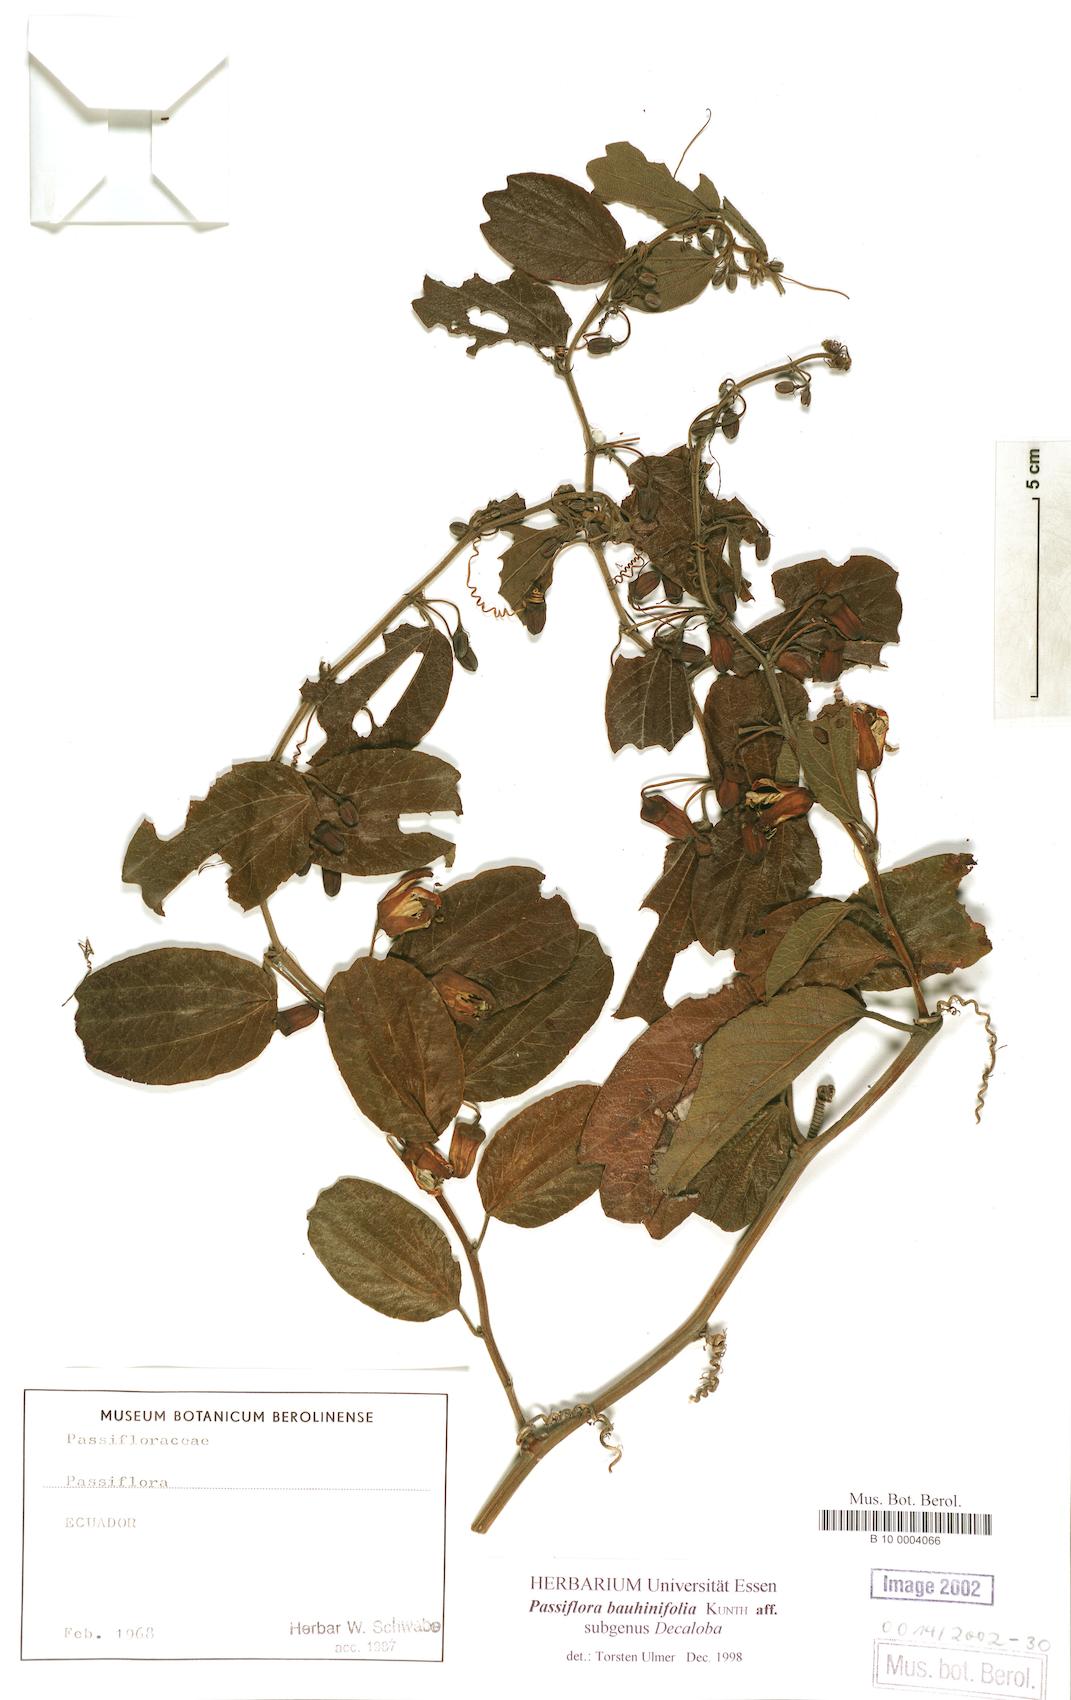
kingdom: Plantae
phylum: Tracheophyta
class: Magnoliopsida
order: Malpighiales
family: Passifloraceae
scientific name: Passifloraceae
